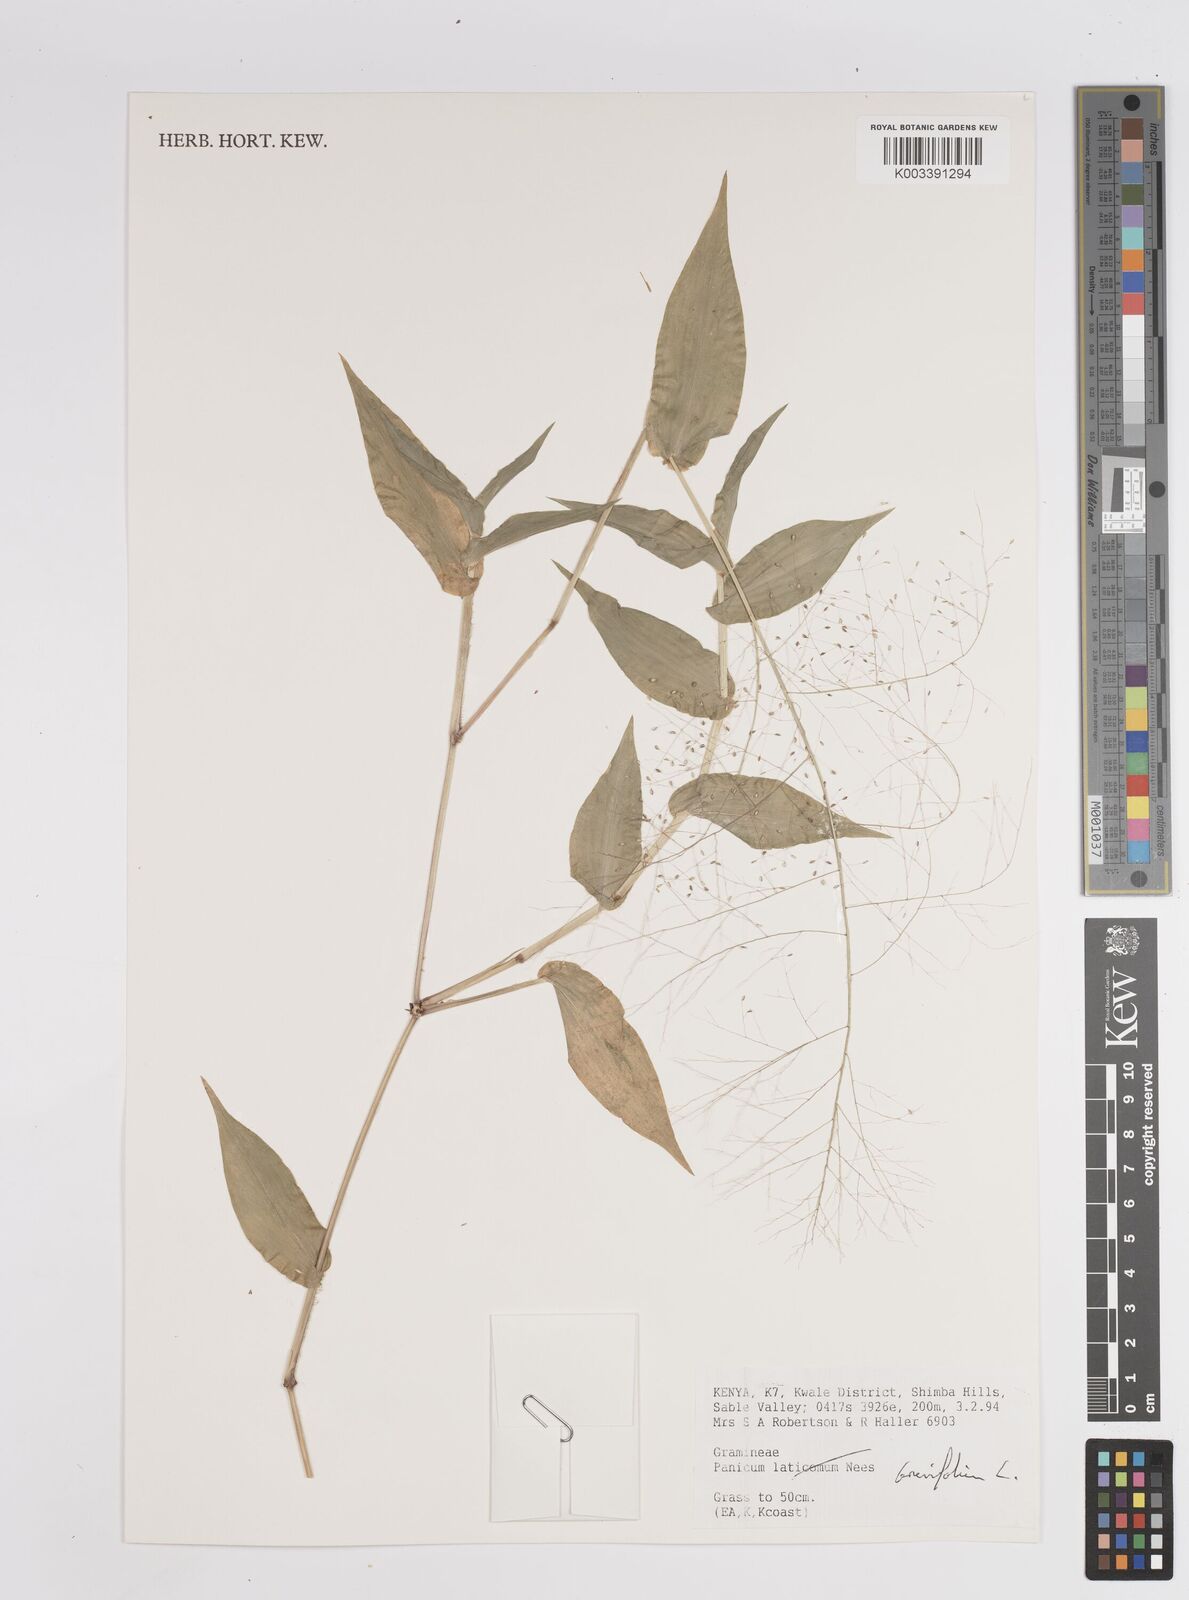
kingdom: Plantae
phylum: Tracheophyta
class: Liliopsida
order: Poales
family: Poaceae
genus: Panicum
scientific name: Panicum brevifolium
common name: Shortleaf panic grass
